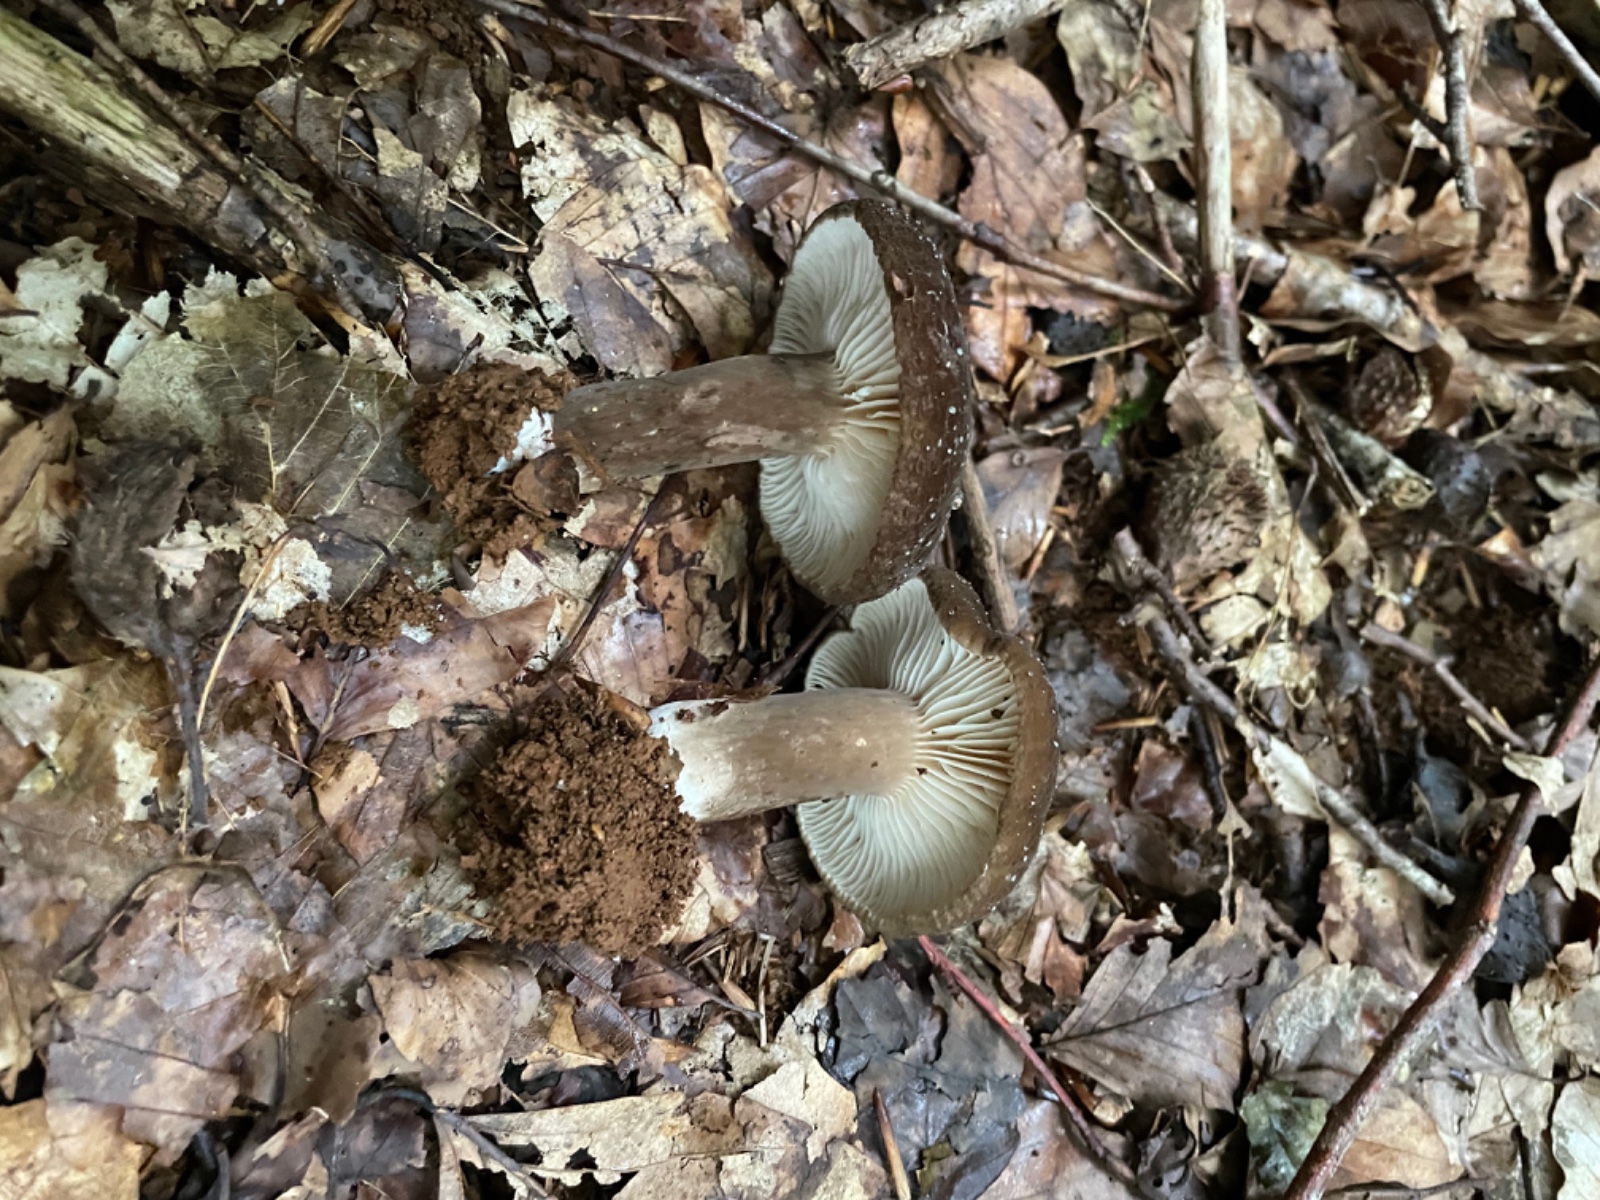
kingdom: Fungi
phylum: Basidiomycota
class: Agaricomycetes
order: Russulales
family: Russulaceae
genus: Lactarius
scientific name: Lactarius romagnesii
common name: fjernbladet mælkehat
